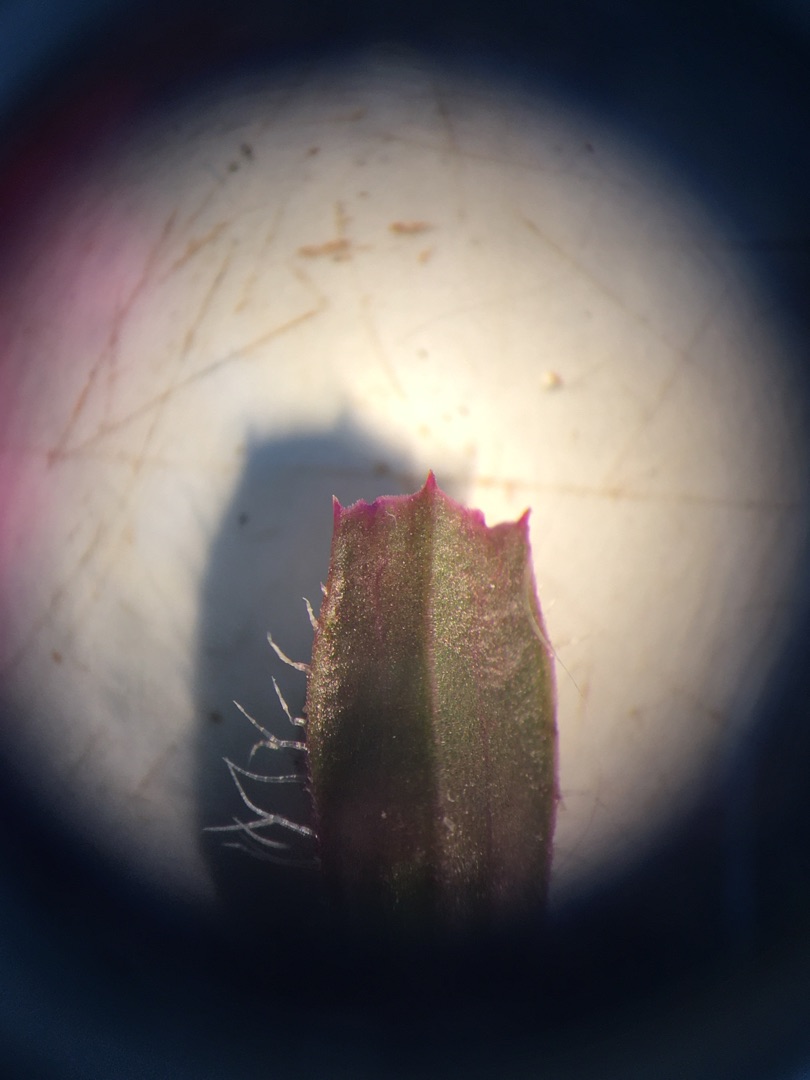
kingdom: Plantae
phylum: Tracheophyta
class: Magnoliopsida
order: Lamiales
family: Lamiaceae
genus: Prunella
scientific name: Prunella vulgaris
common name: Almindelig brunelle
